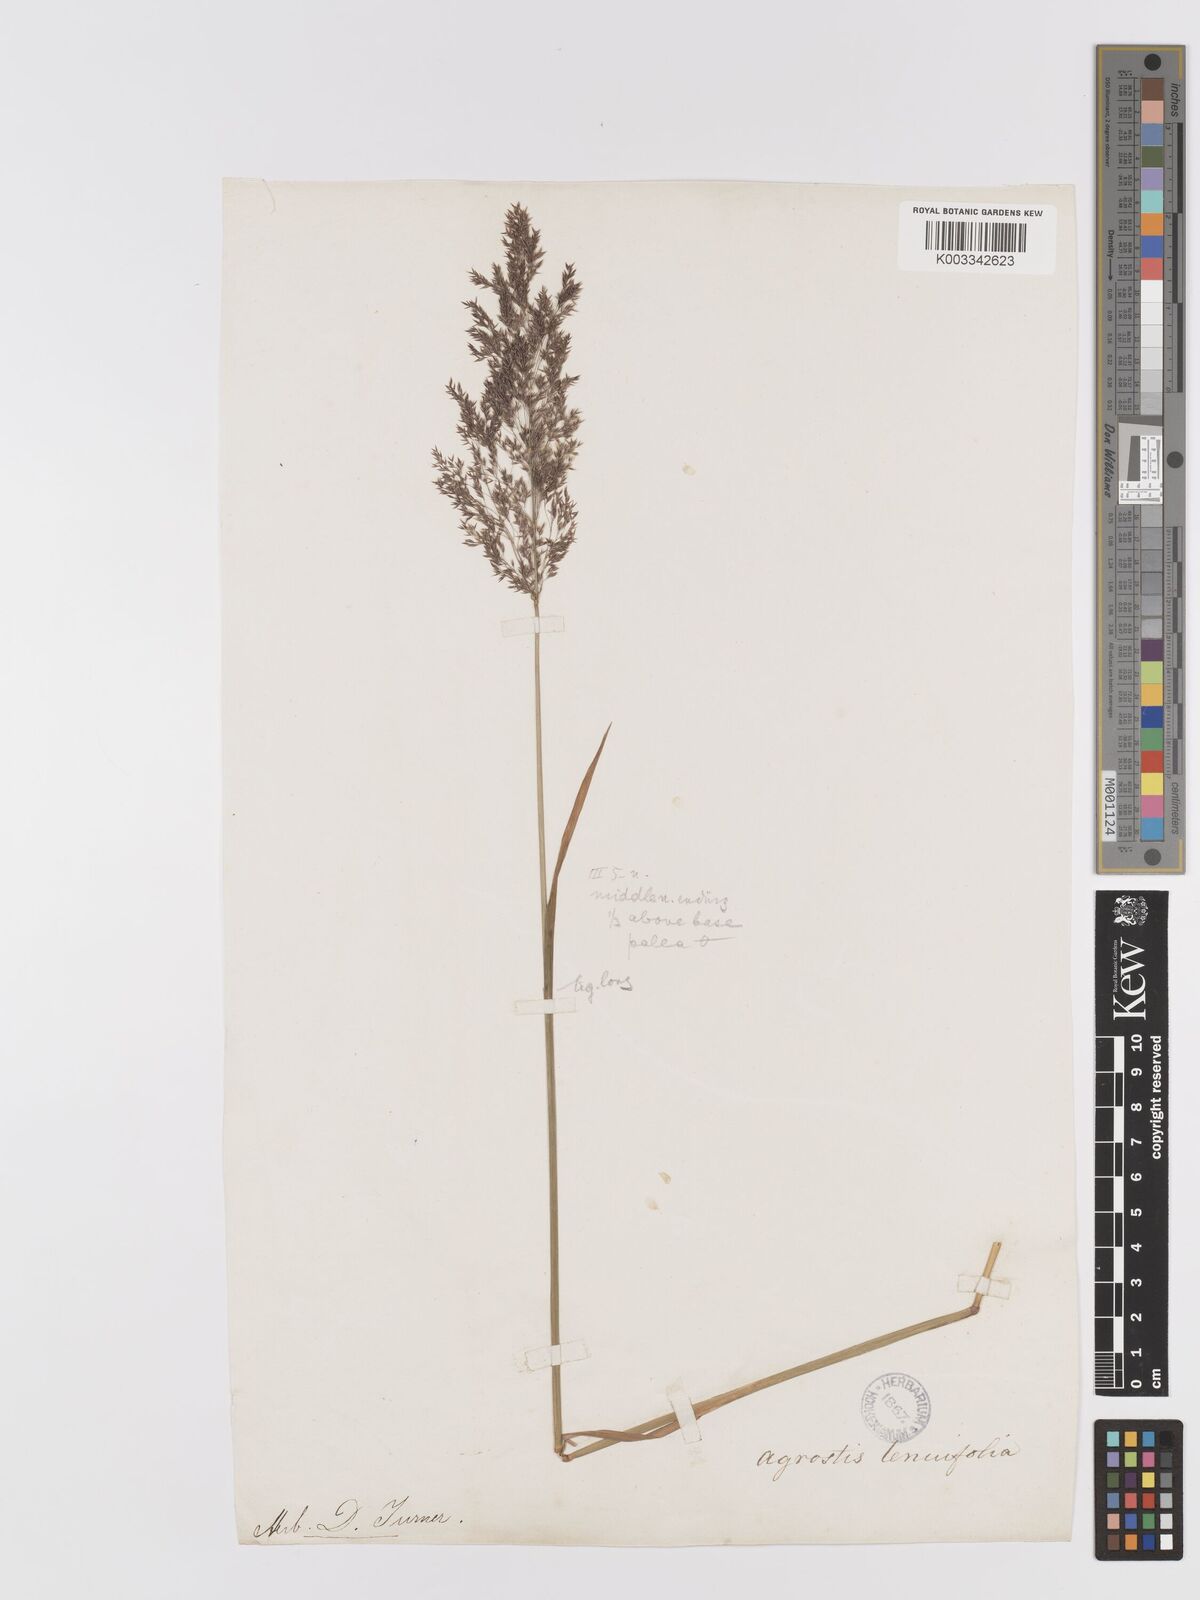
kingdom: Plantae
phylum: Tracheophyta
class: Liliopsida
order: Poales
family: Poaceae
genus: Agrostis
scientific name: Agrostis
